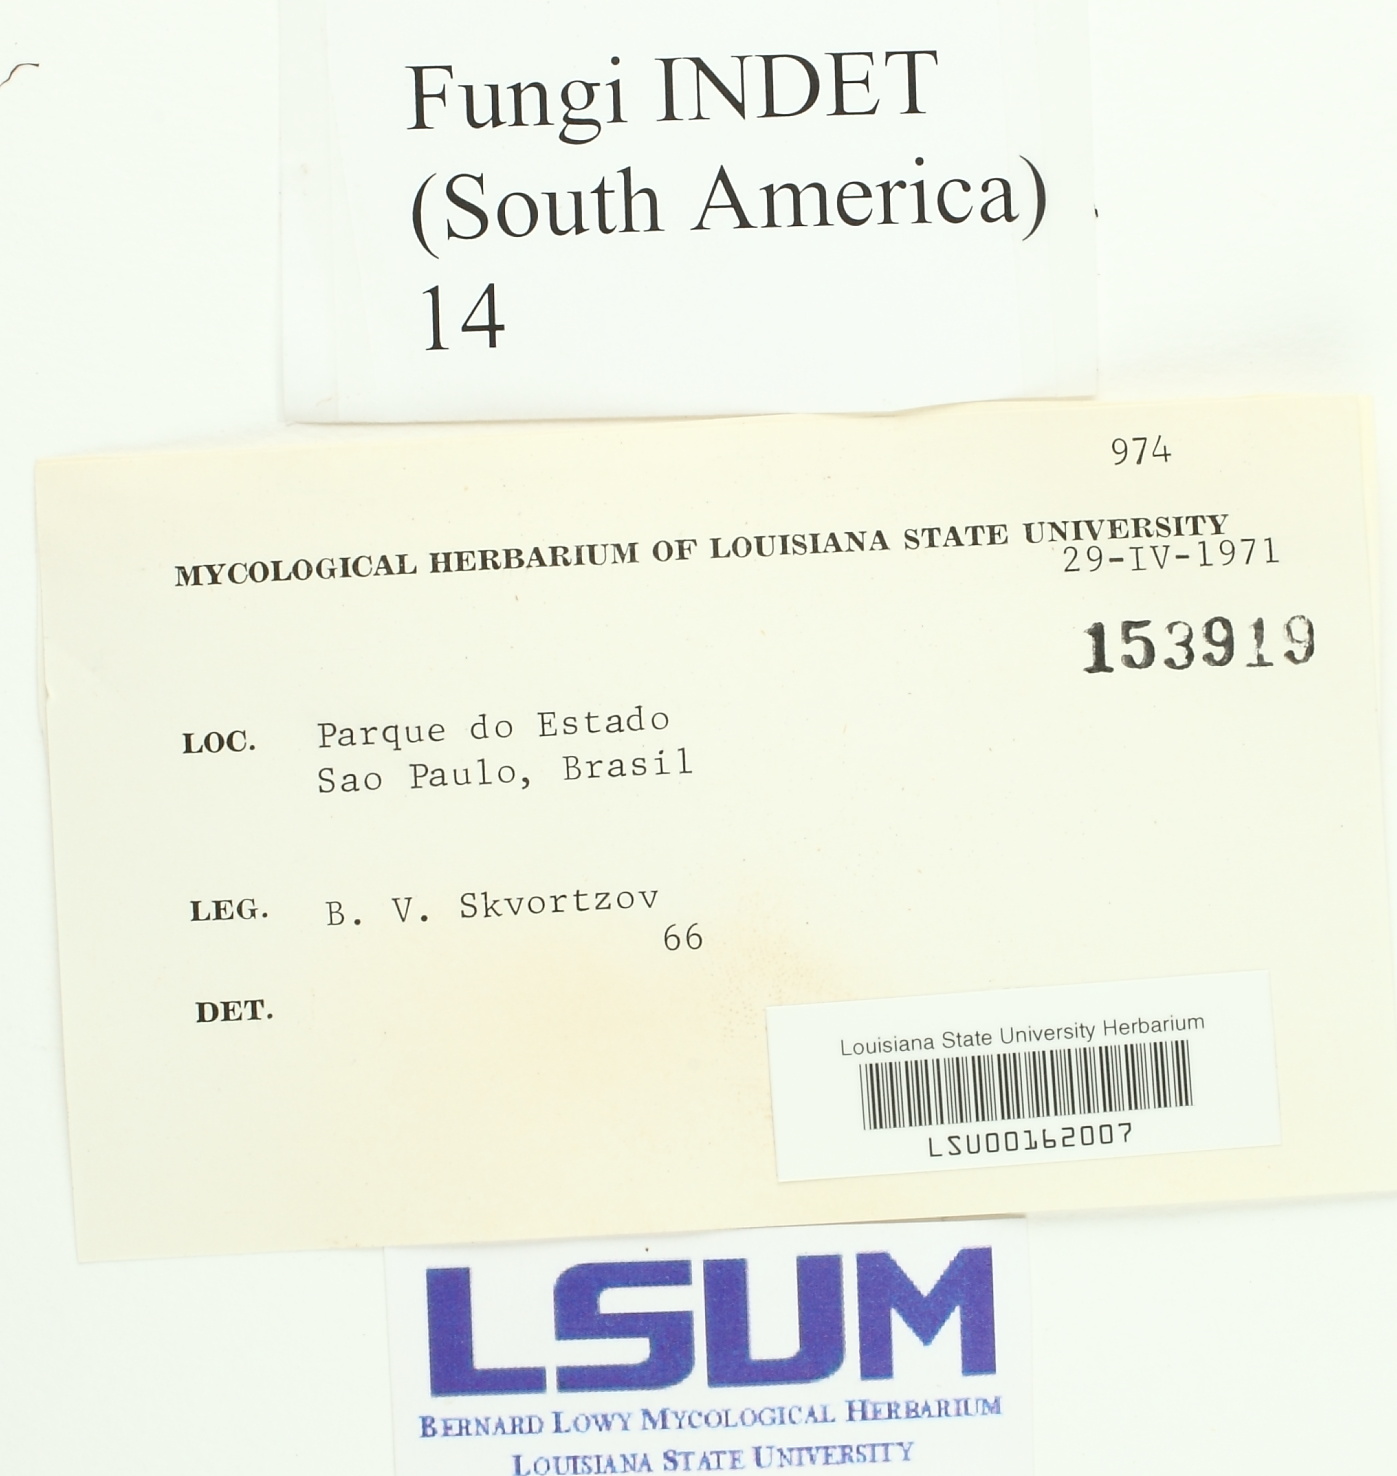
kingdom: Fungi
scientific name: Fungi
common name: Fungi
